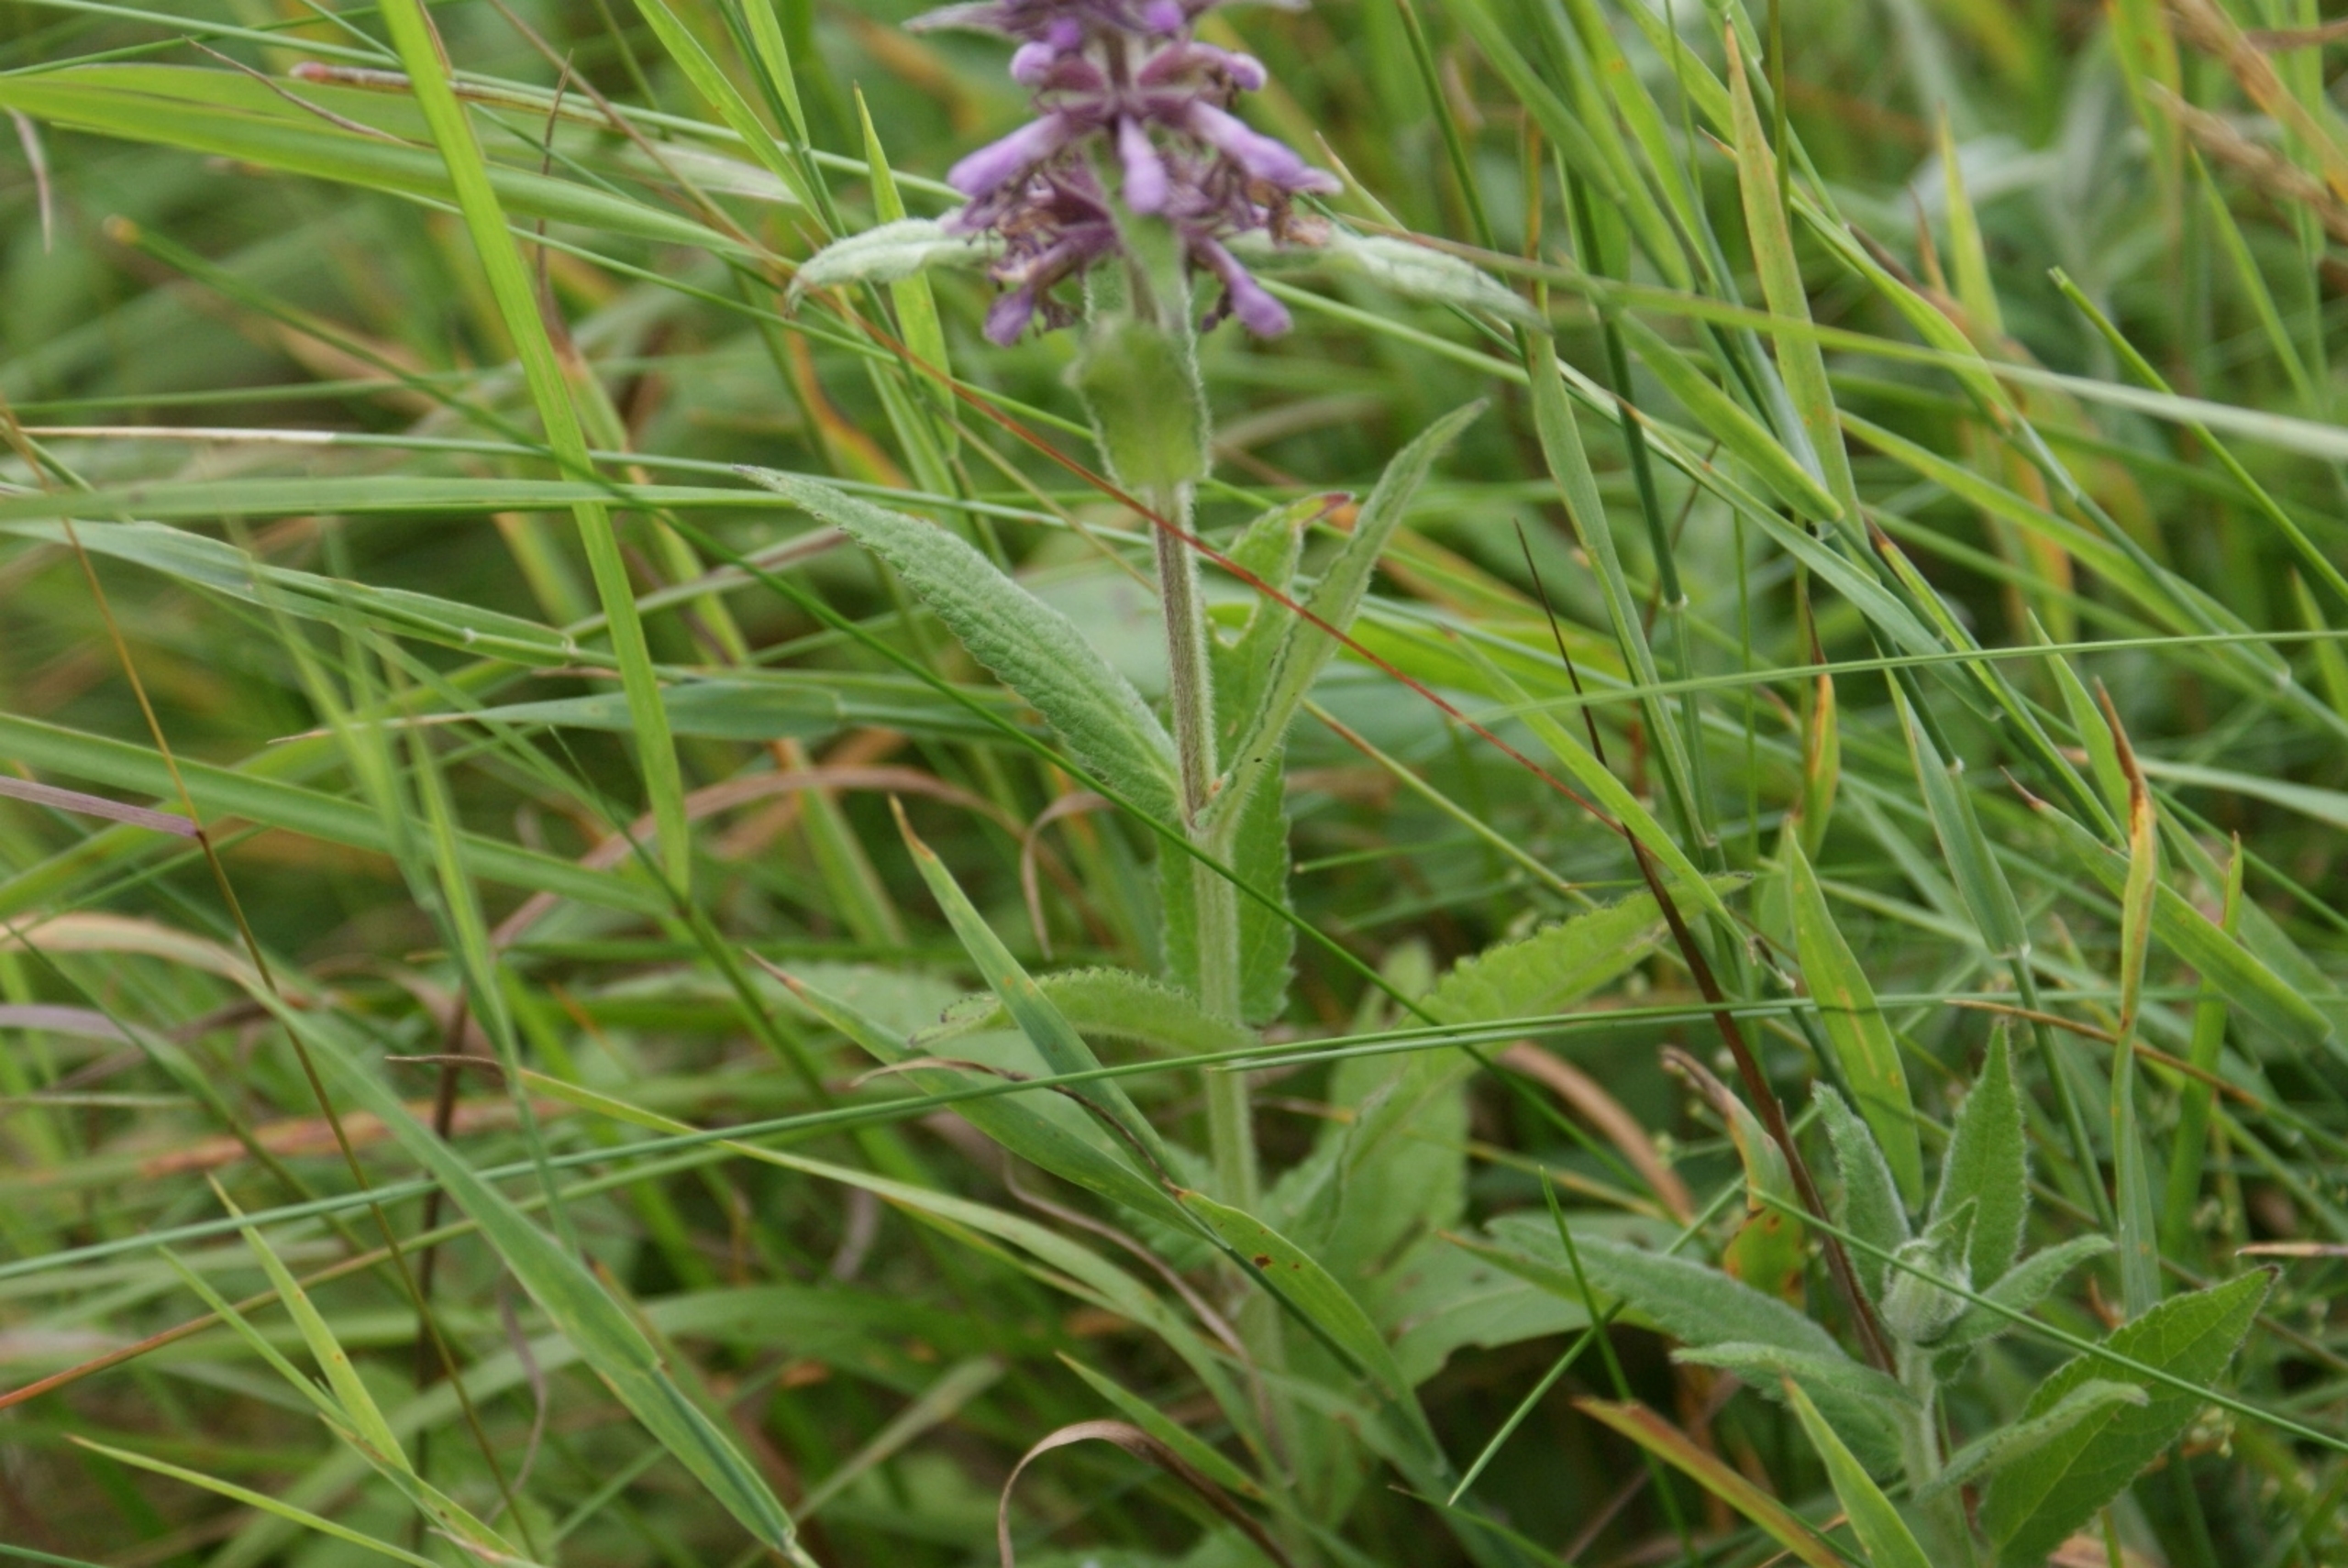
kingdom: Plantae
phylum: Tracheophyta
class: Magnoliopsida
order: Lamiales
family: Lamiaceae
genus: Stachys
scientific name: Stachys palustris
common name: Kær-galtetand
